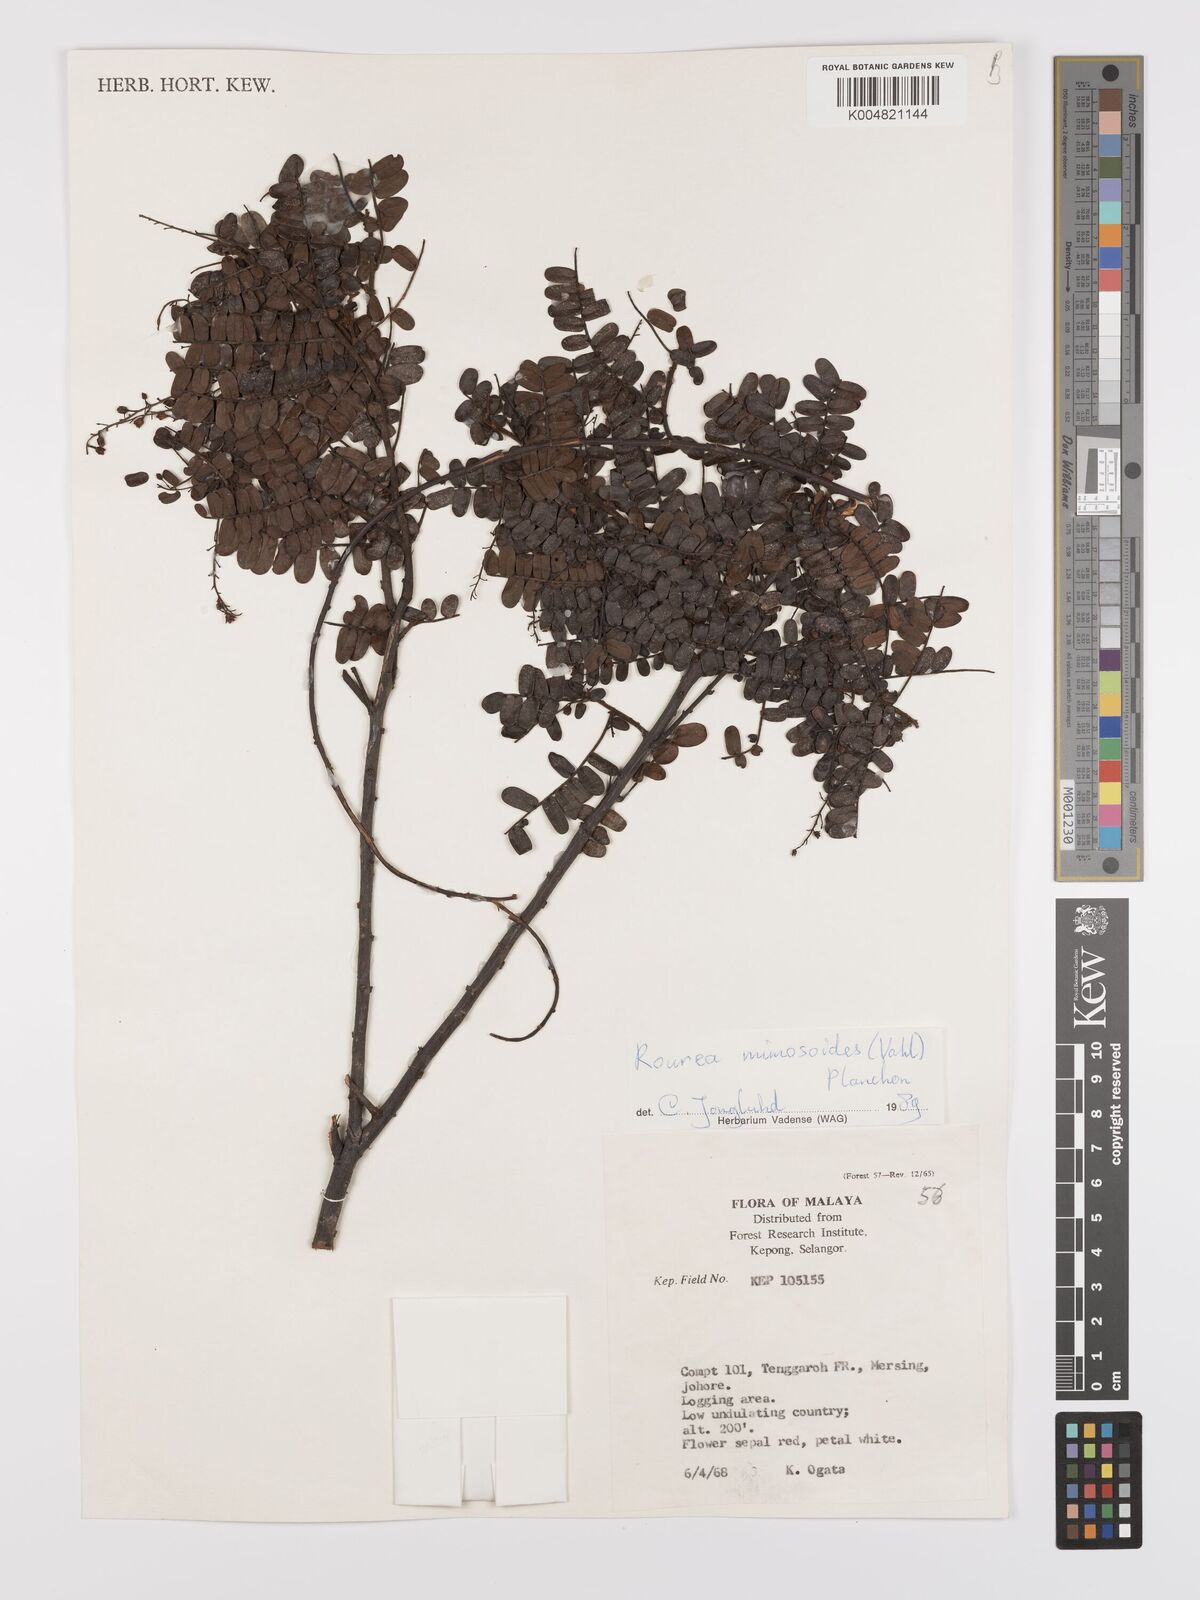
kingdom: Plantae
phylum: Tracheophyta
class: Magnoliopsida
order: Oxalidales
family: Connaraceae
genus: Rourea
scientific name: Rourea mimosoides
